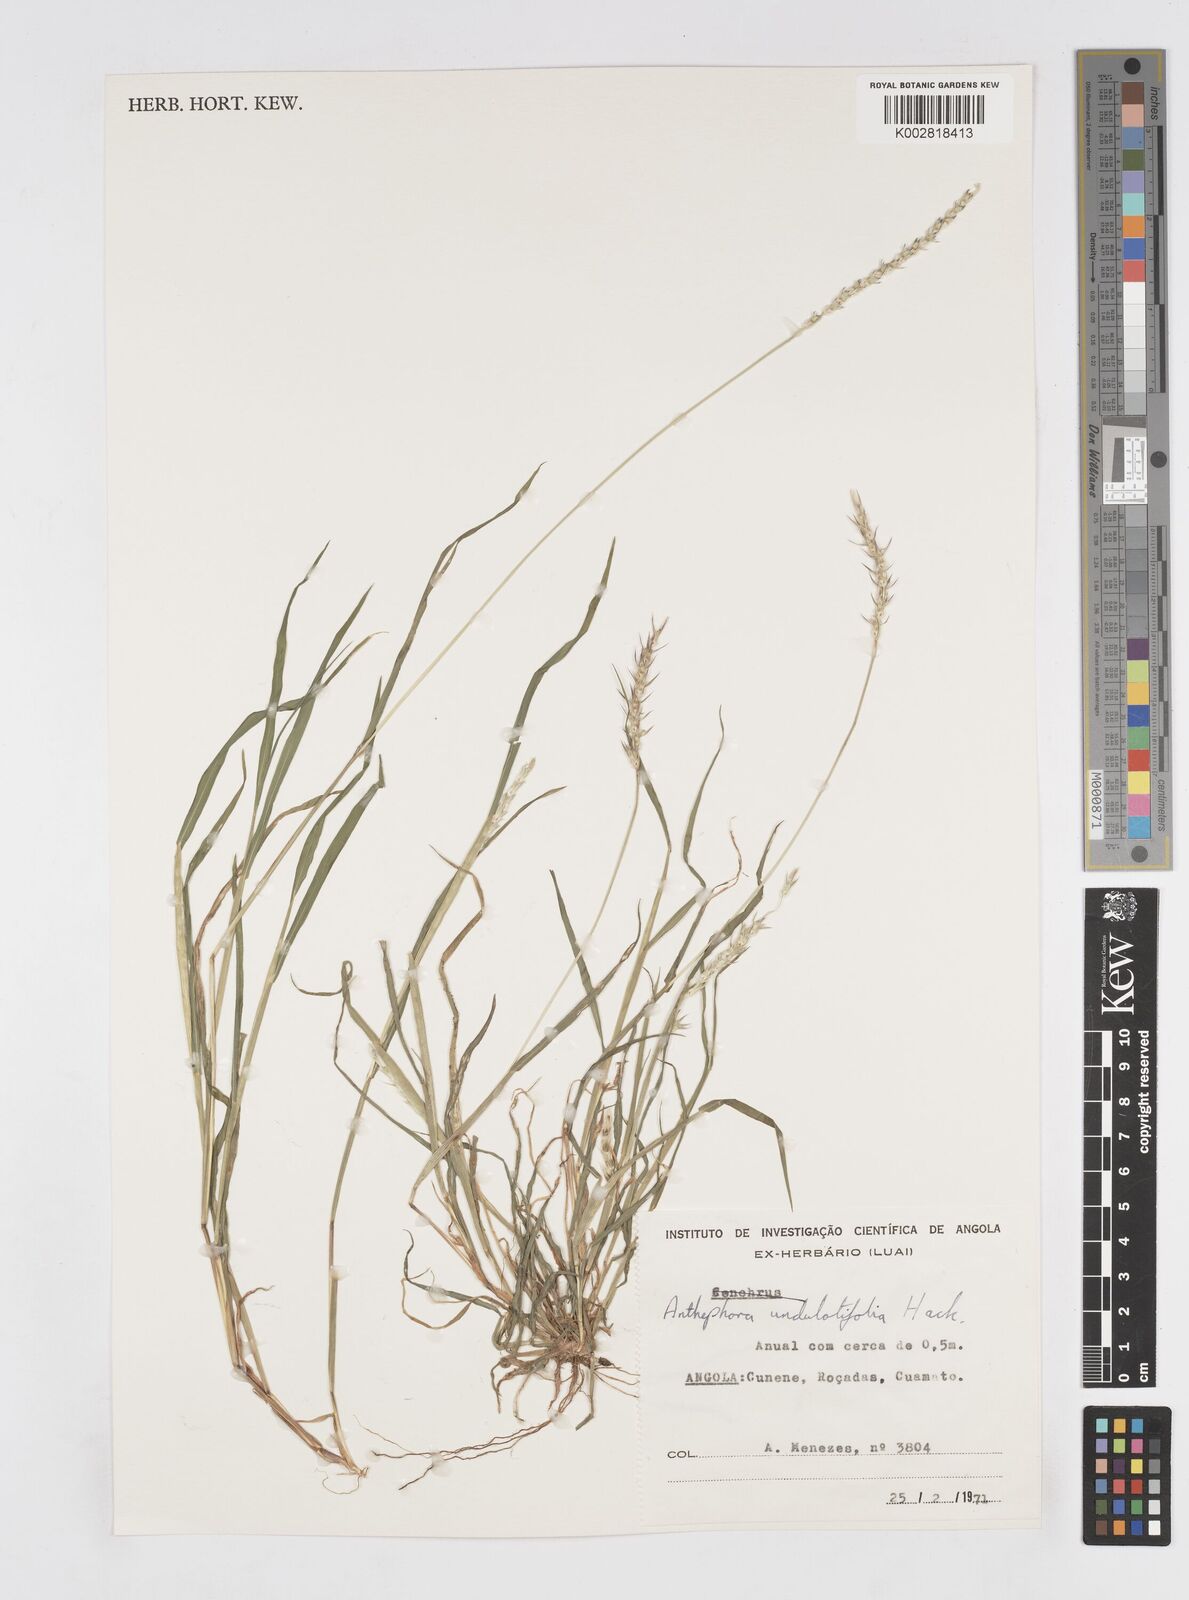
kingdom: Plantae
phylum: Tracheophyta
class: Liliopsida
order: Poales
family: Poaceae
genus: Anthephora
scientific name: Anthephora schinzii
